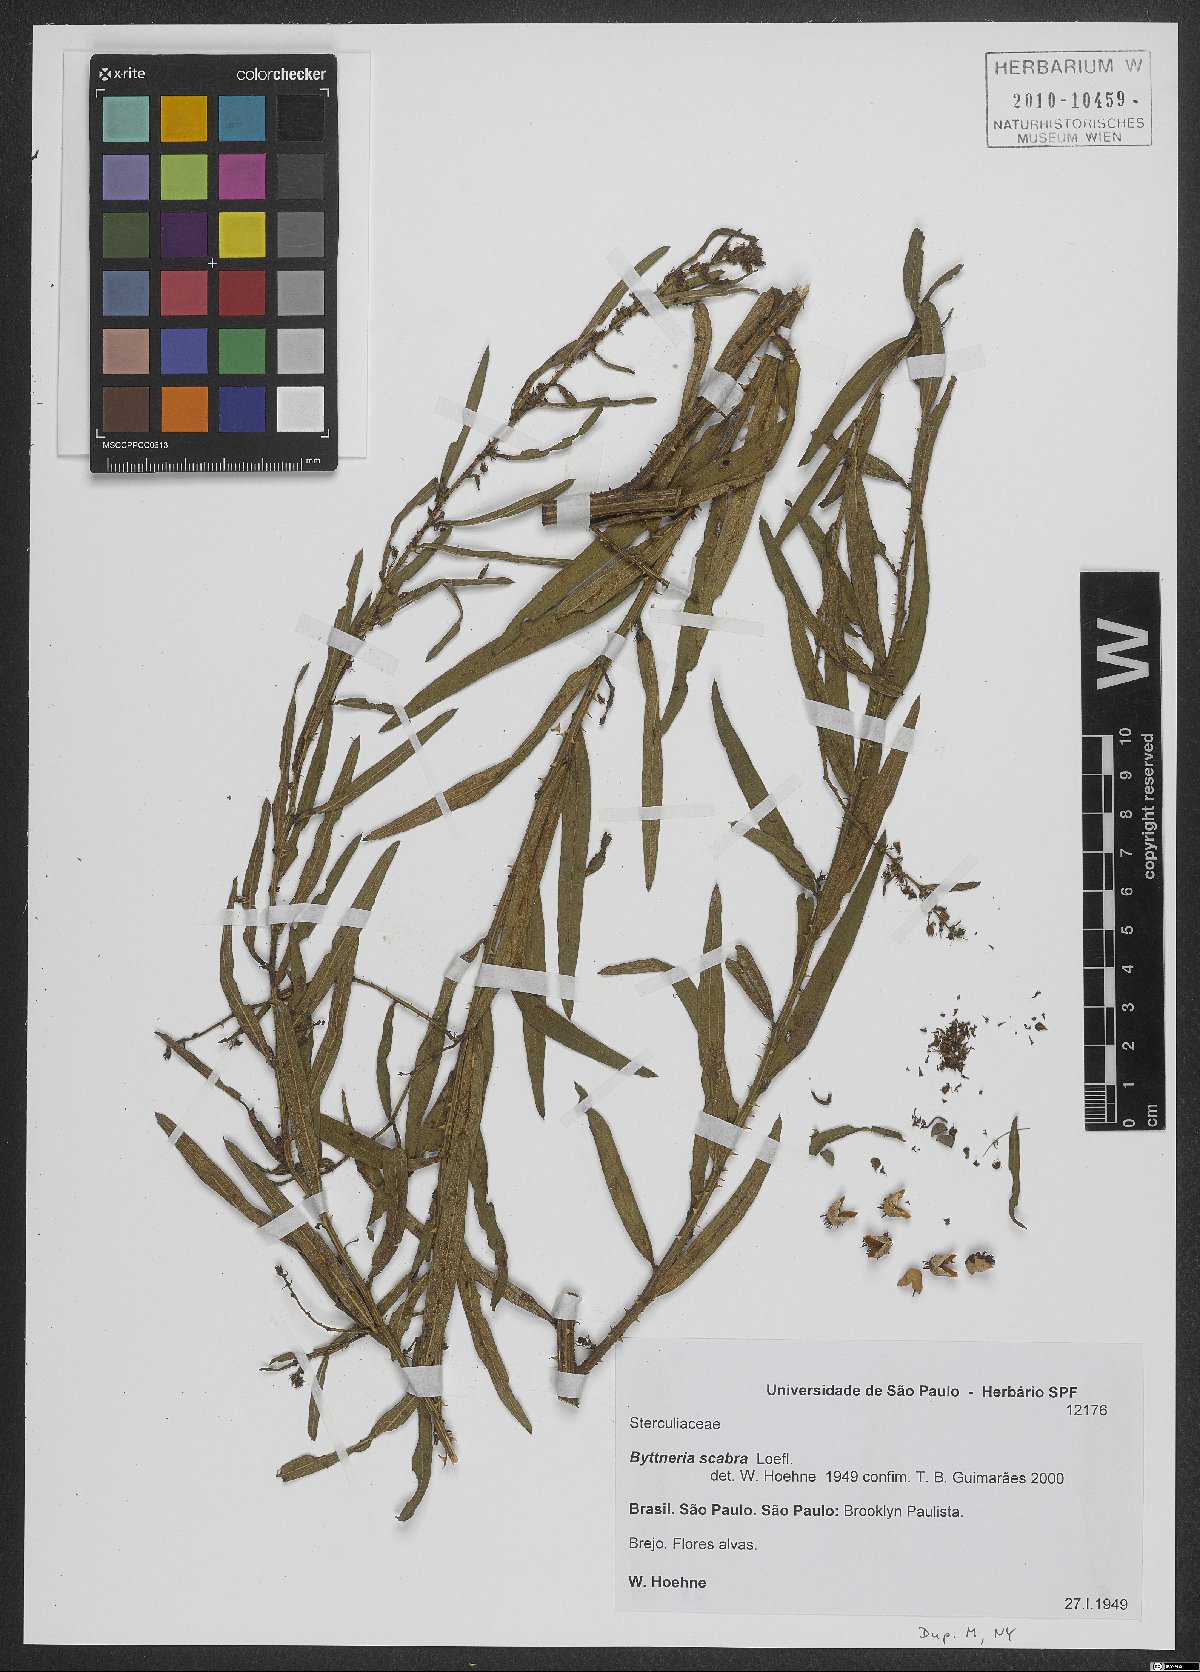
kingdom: Plantae
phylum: Tracheophyta
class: Magnoliopsida
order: Malvales
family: Malvaceae
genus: Byttneria
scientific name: Byttneria scabra
